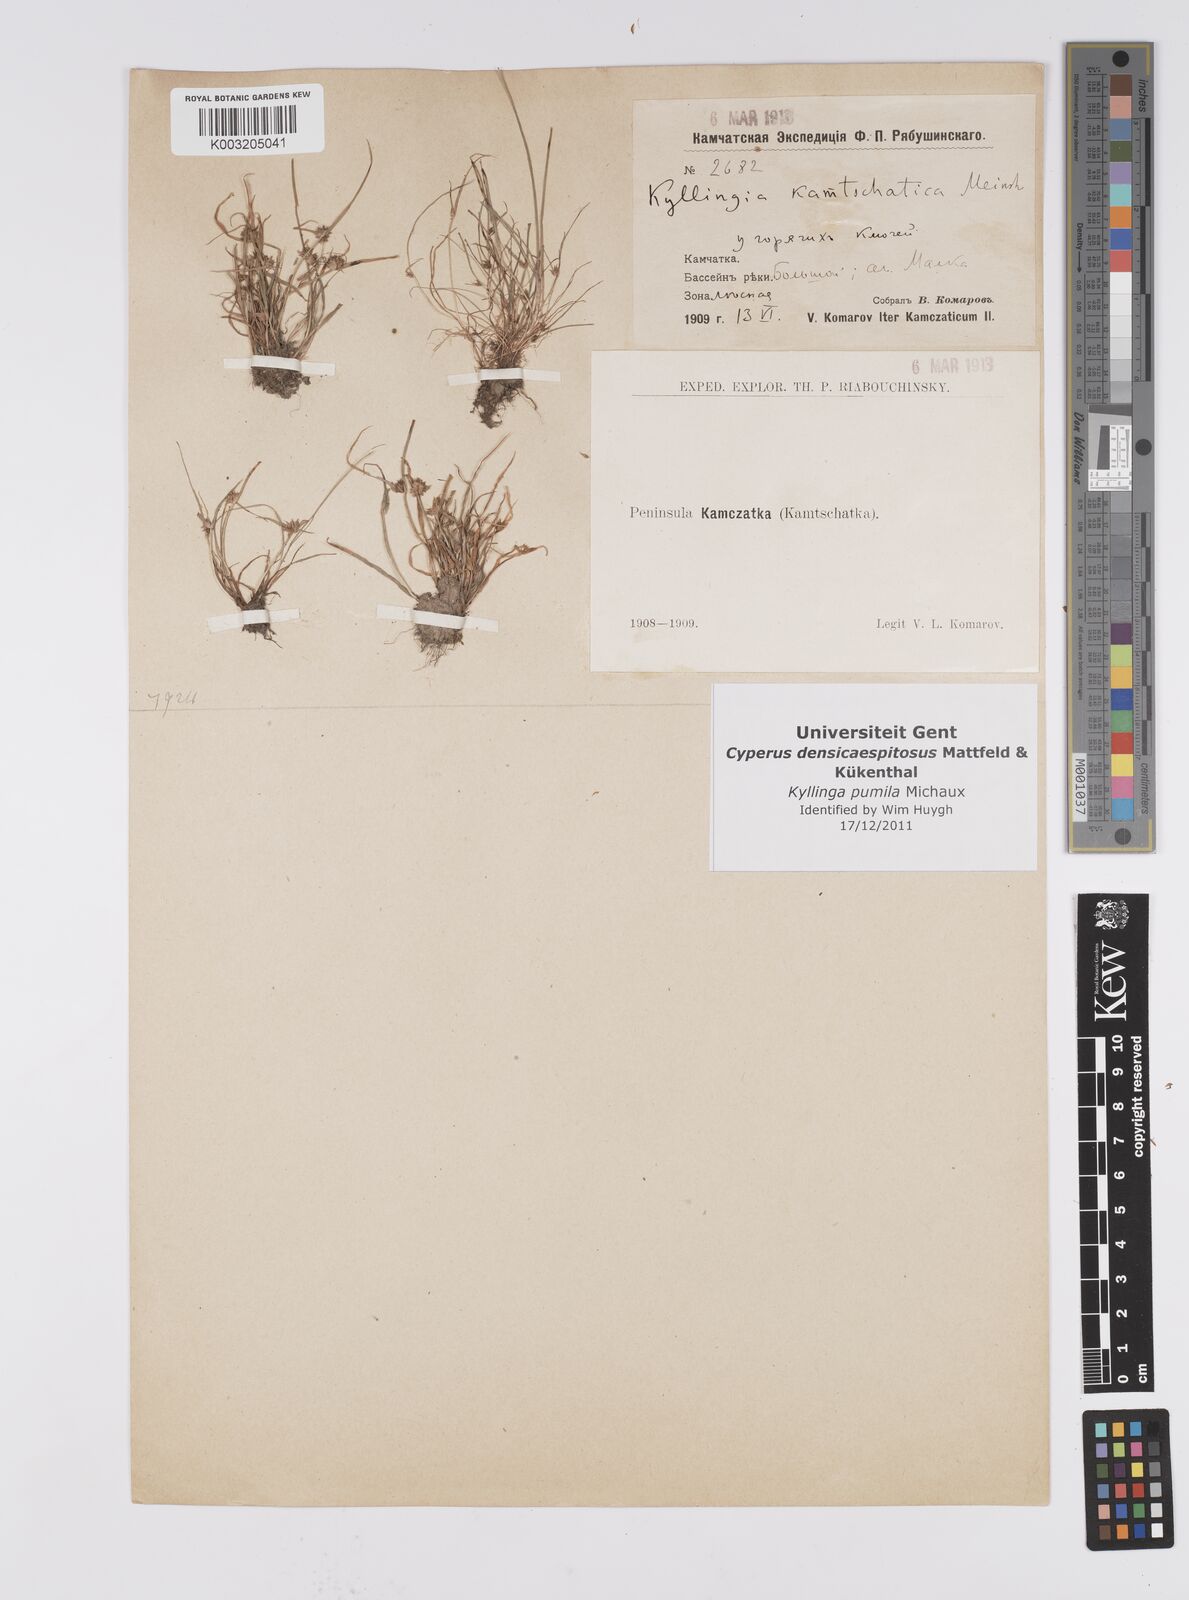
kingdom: Plantae
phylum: Tracheophyta
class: Liliopsida
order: Poales
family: Cyperaceae
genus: Cyperus
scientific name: Cyperus
